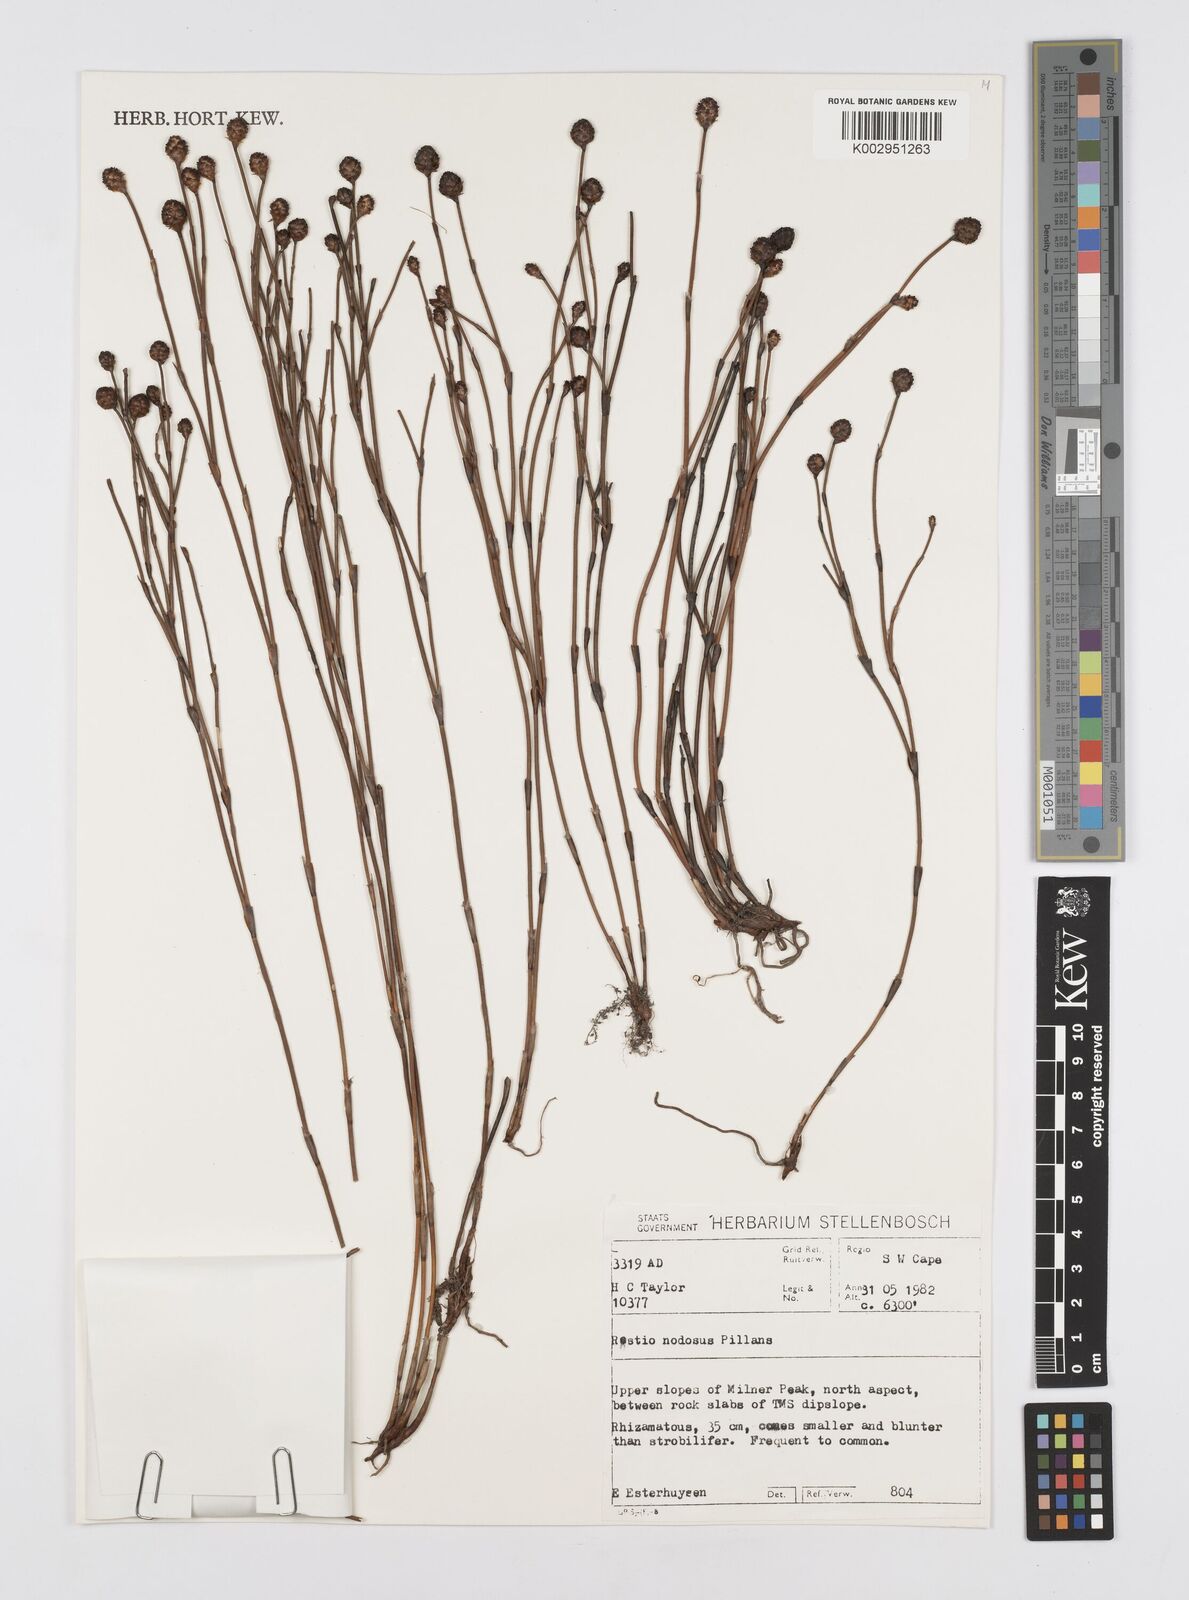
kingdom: Plantae
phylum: Tracheophyta
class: Liliopsida
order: Poales
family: Restionaceae
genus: Restio
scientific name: Restio nodosus
